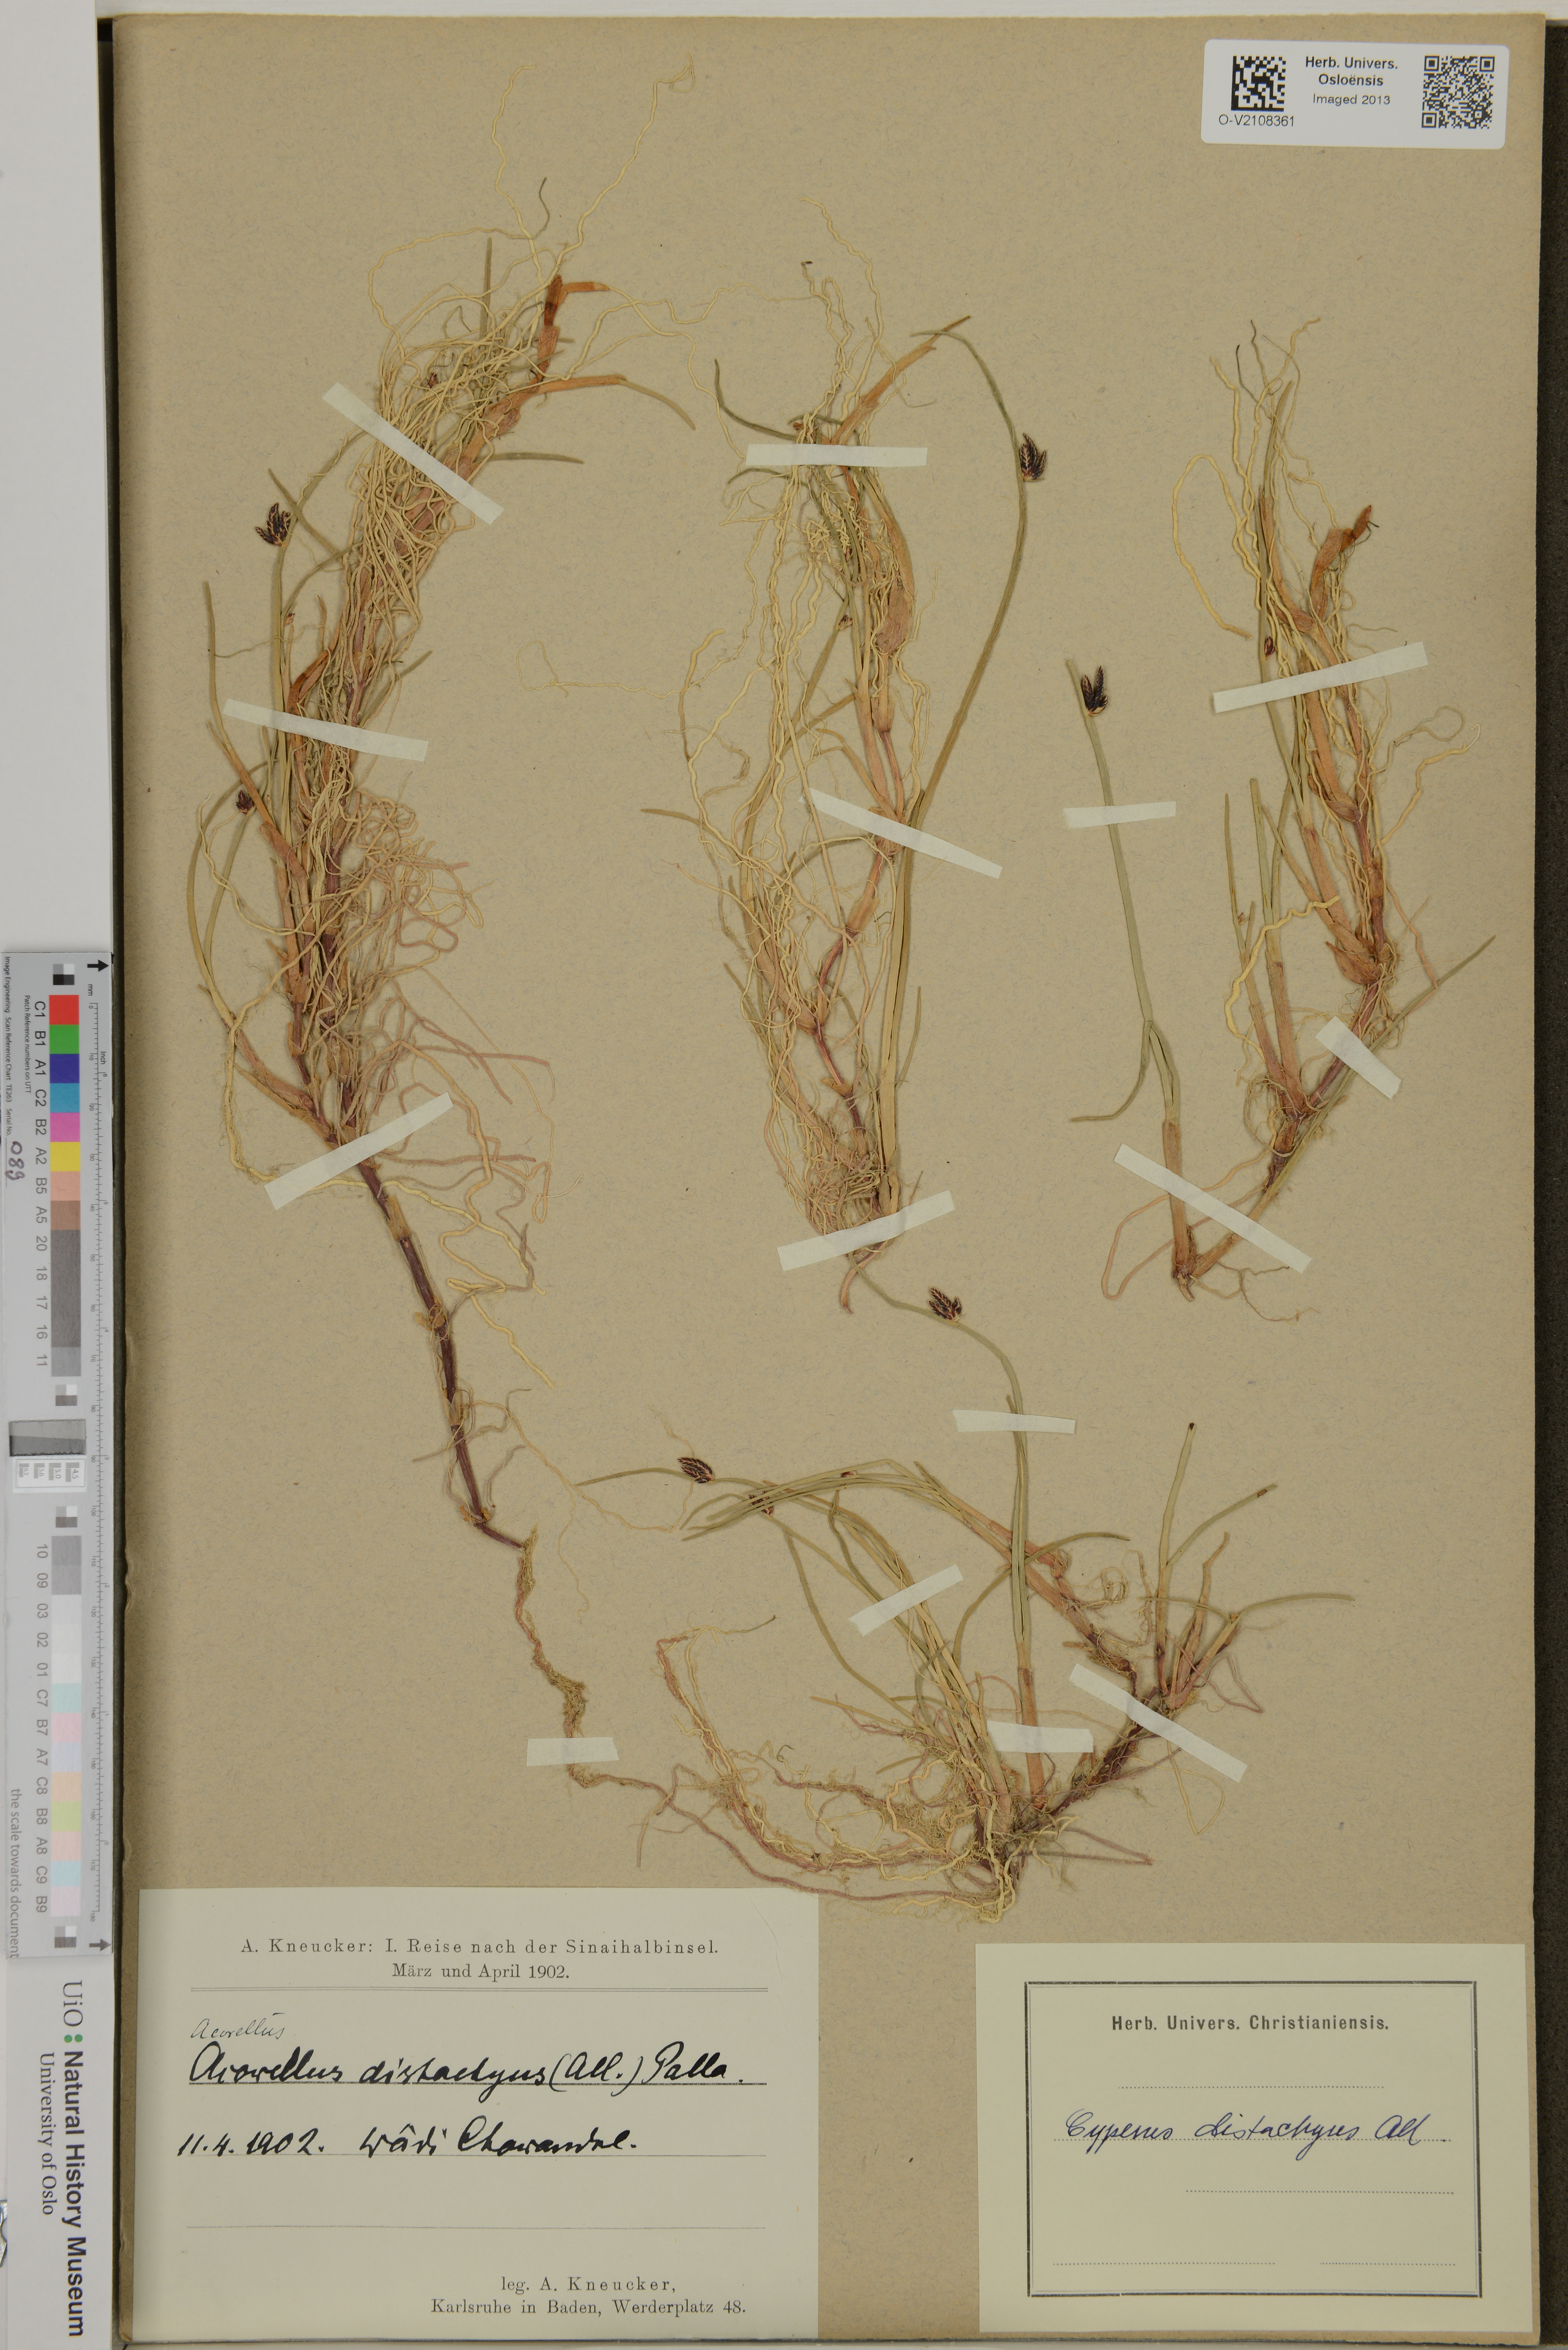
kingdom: Plantae
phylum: Tracheophyta
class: Liliopsida
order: Poales
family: Cyperaceae
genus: Cyperus
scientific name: Cyperus laevigatus
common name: Smooth flat sedge
